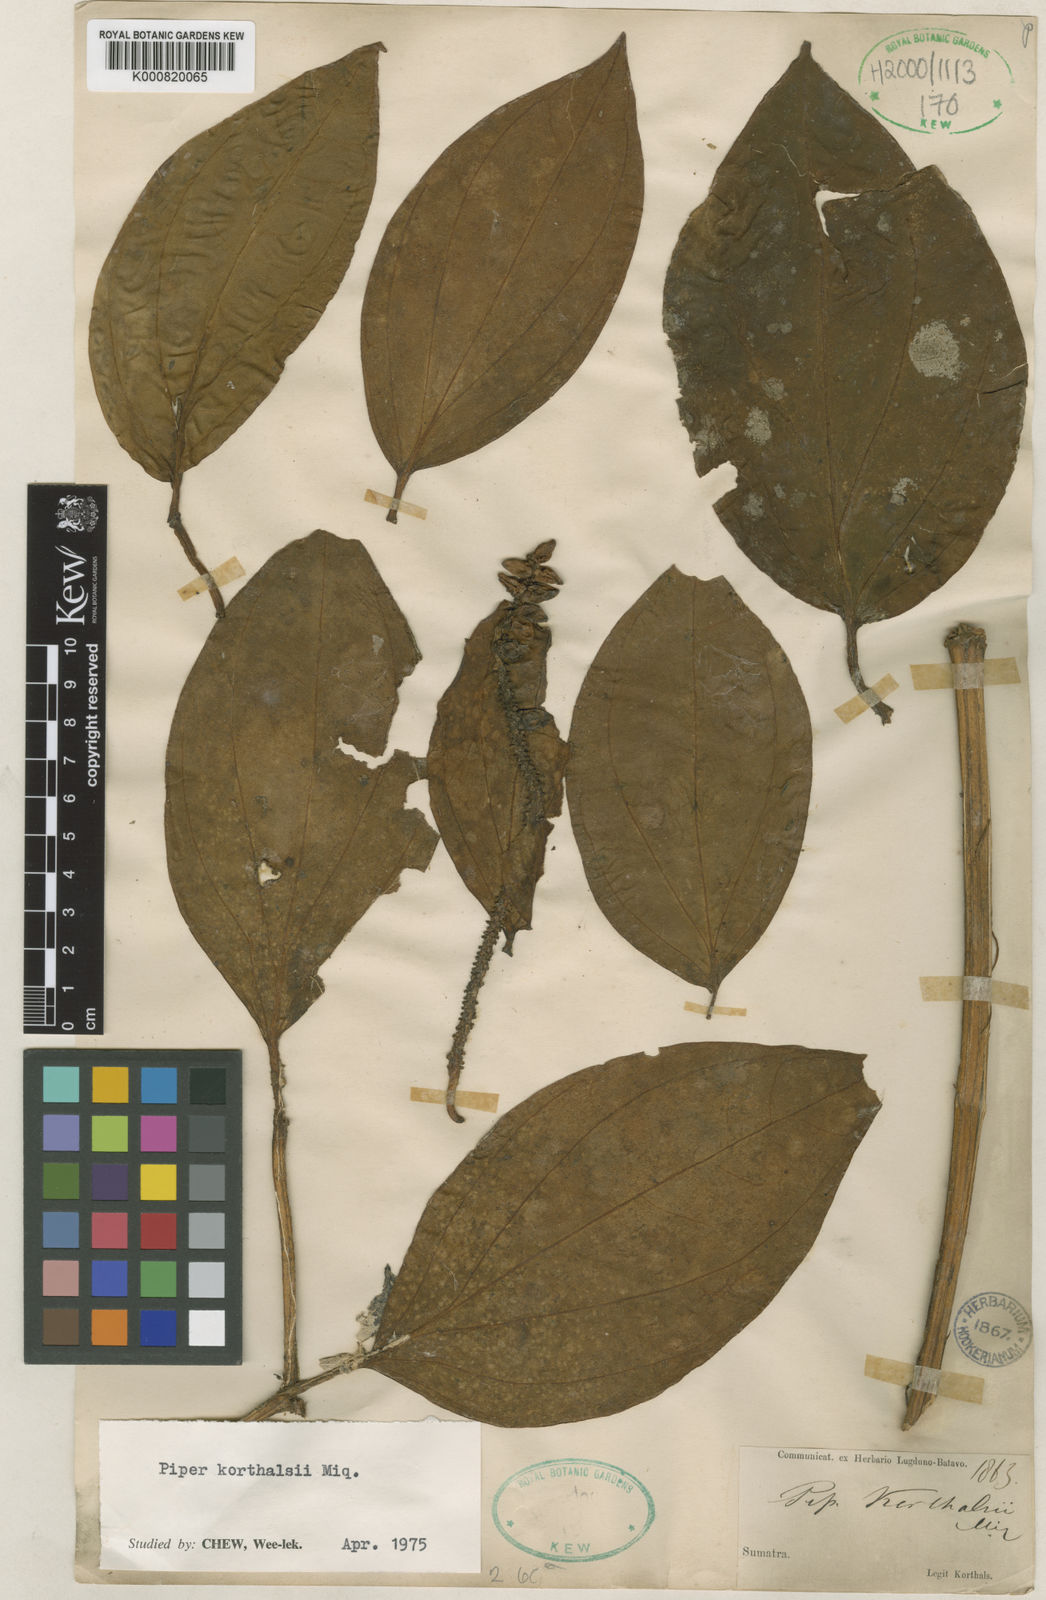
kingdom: Plantae
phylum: Tracheophyta
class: Magnoliopsida
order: Piperales
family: Piperaceae
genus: Piper
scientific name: Piper quinqueangulatum
